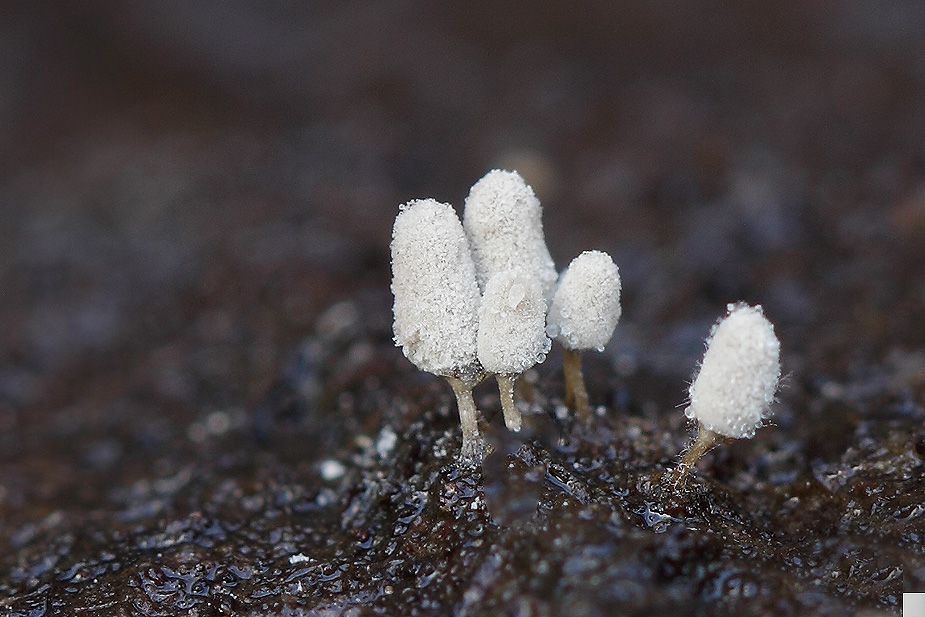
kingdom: Protozoa
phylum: Mycetozoa
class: Myxomycetes
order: Trichiales
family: Arcyriaceae
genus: Arcyria
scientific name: Arcyria cinerea
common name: White carnival candy slime mold
